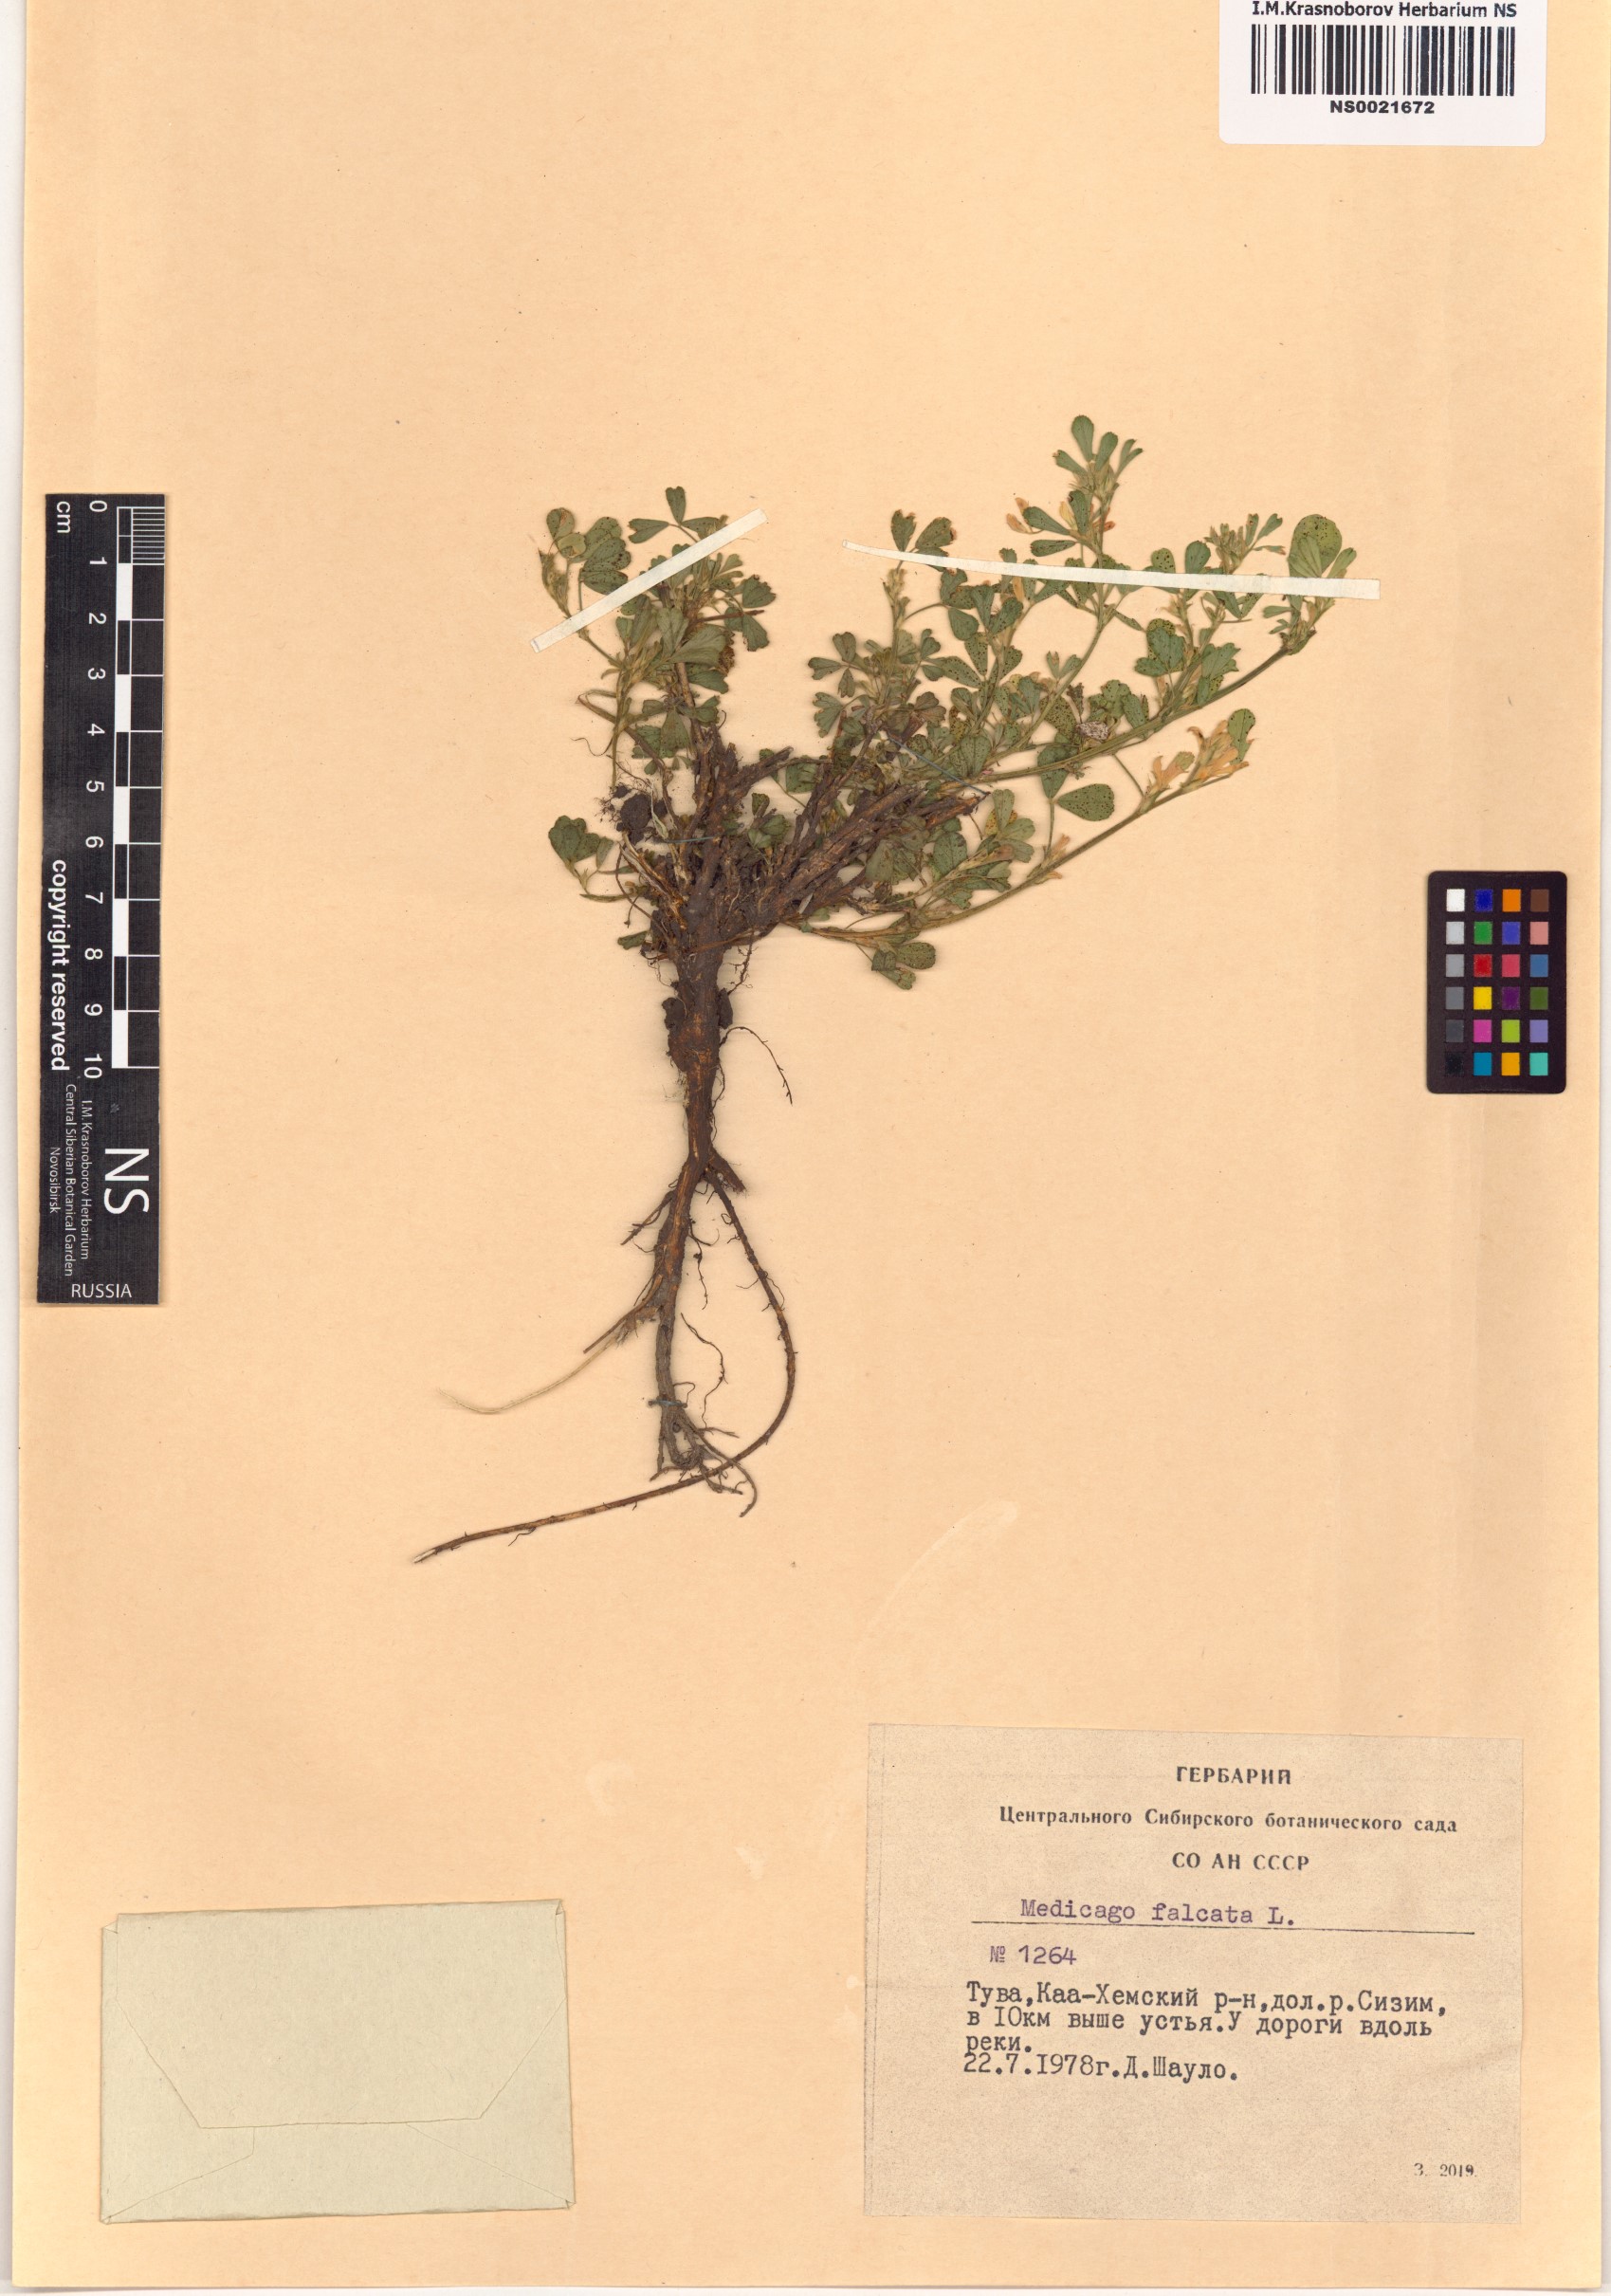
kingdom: Plantae
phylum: Tracheophyta
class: Magnoliopsida
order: Fabales
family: Fabaceae
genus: Medicago
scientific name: Medicago falcata
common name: Sickle medick
